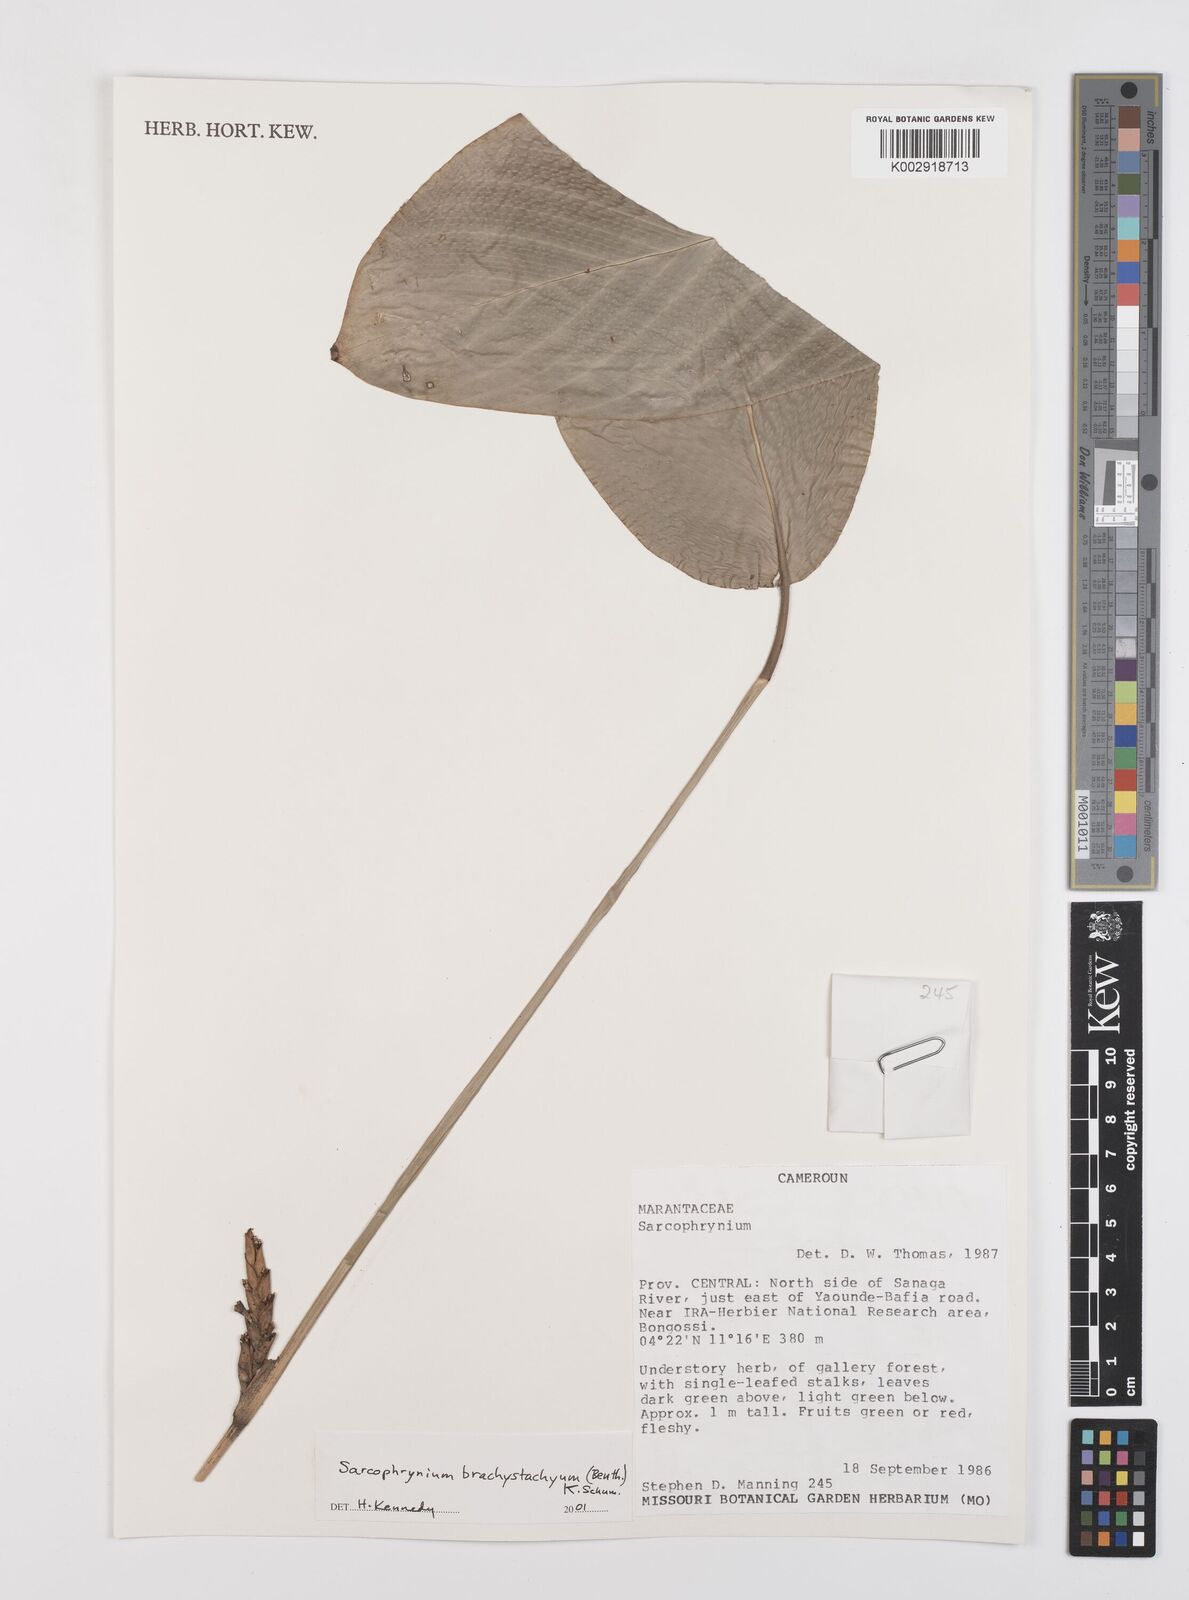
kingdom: Plantae
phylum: Tracheophyta
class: Liliopsida
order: Zingiberales
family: Marantaceae
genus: Sarcophrynium
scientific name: Sarcophrynium brachystachyum
